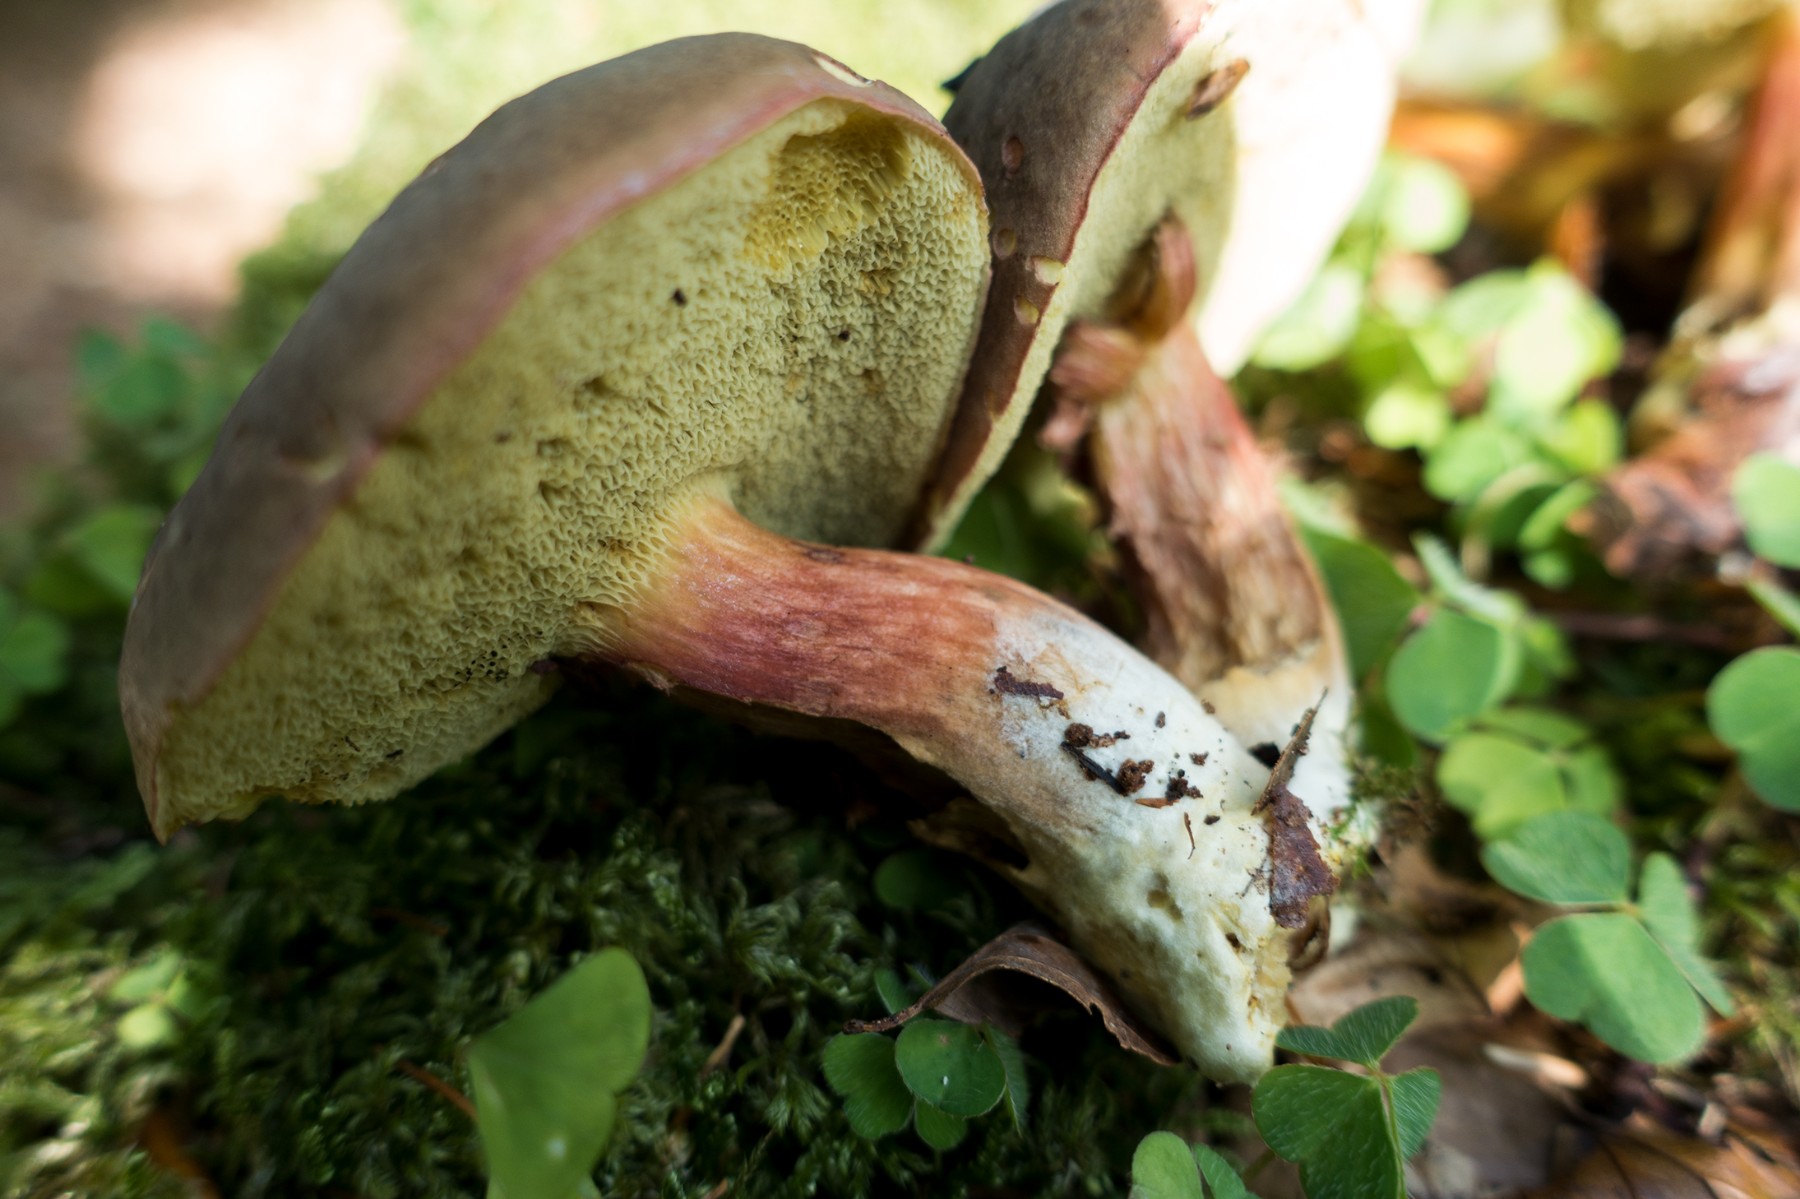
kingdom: Fungi
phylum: Basidiomycota
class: Agaricomycetes
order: Boletales
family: Boletaceae
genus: Xerocomellus
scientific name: Xerocomellus
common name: dværgrørhat
